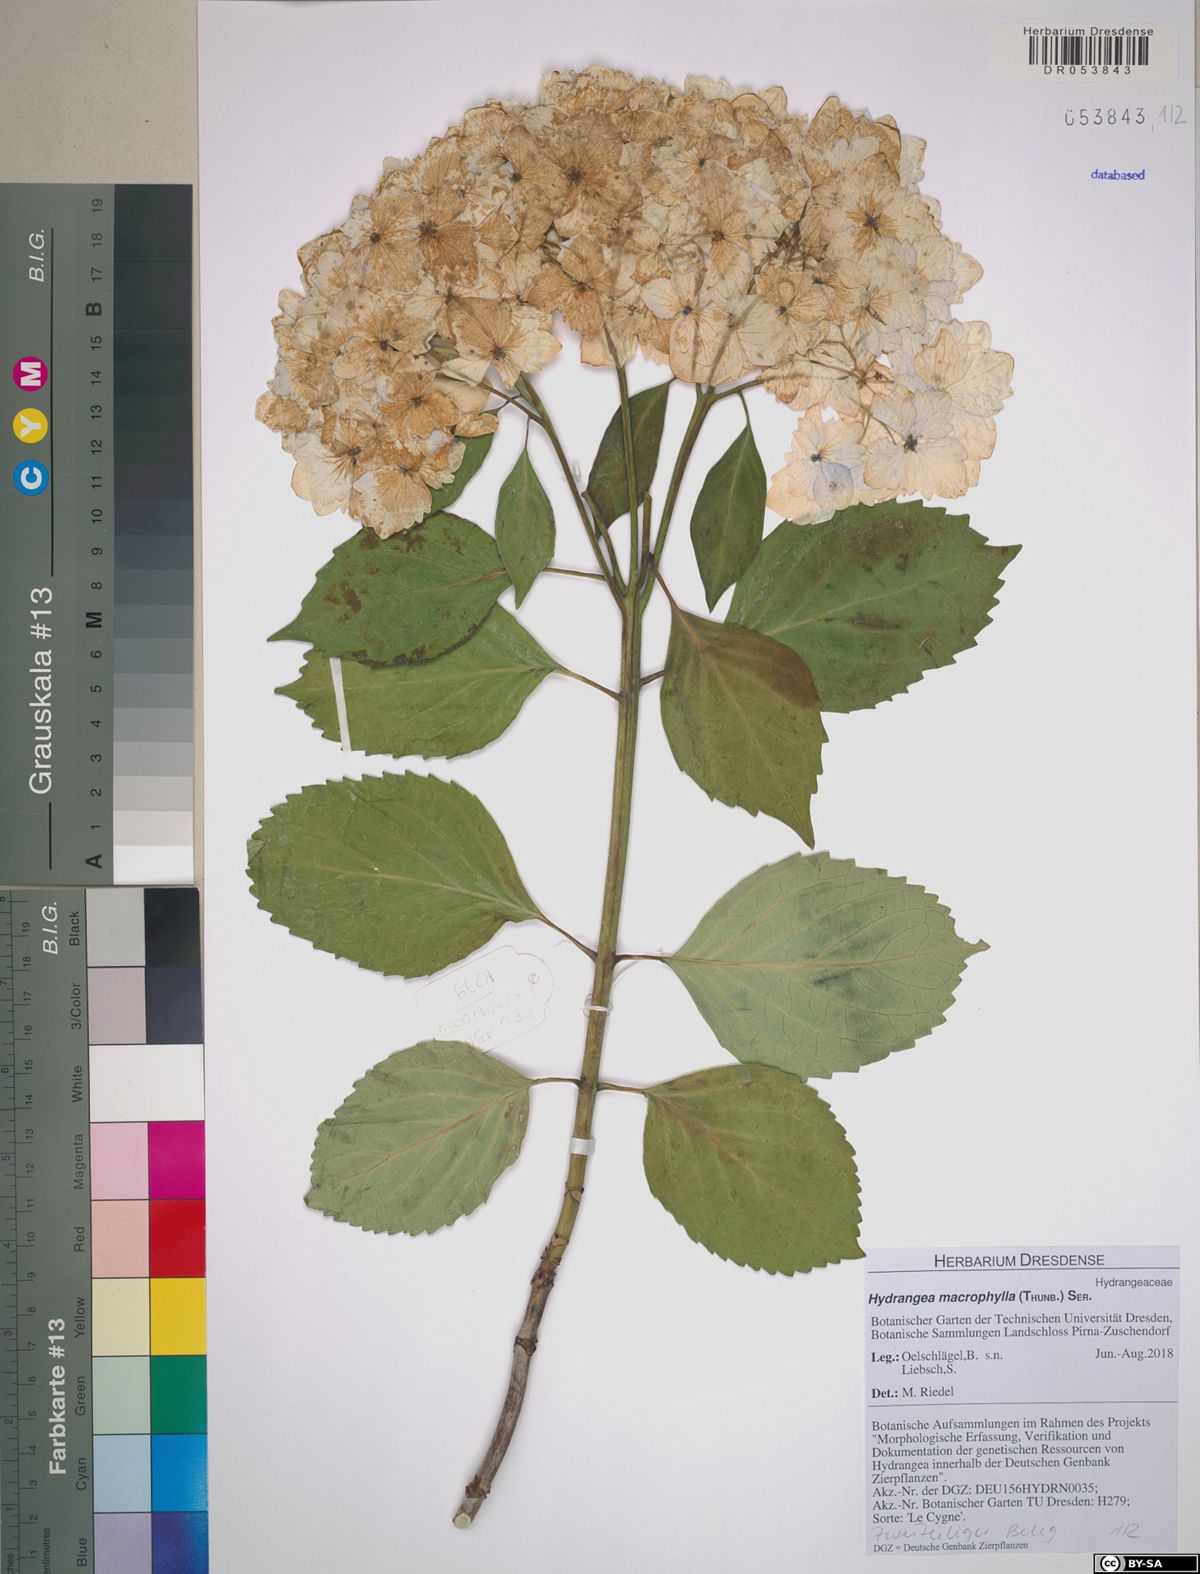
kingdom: Plantae
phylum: Tracheophyta
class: Magnoliopsida
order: Cornales
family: Hydrangeaceae
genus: Hydrangea
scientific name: Hydrangea macrophylla
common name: Hydrangea
